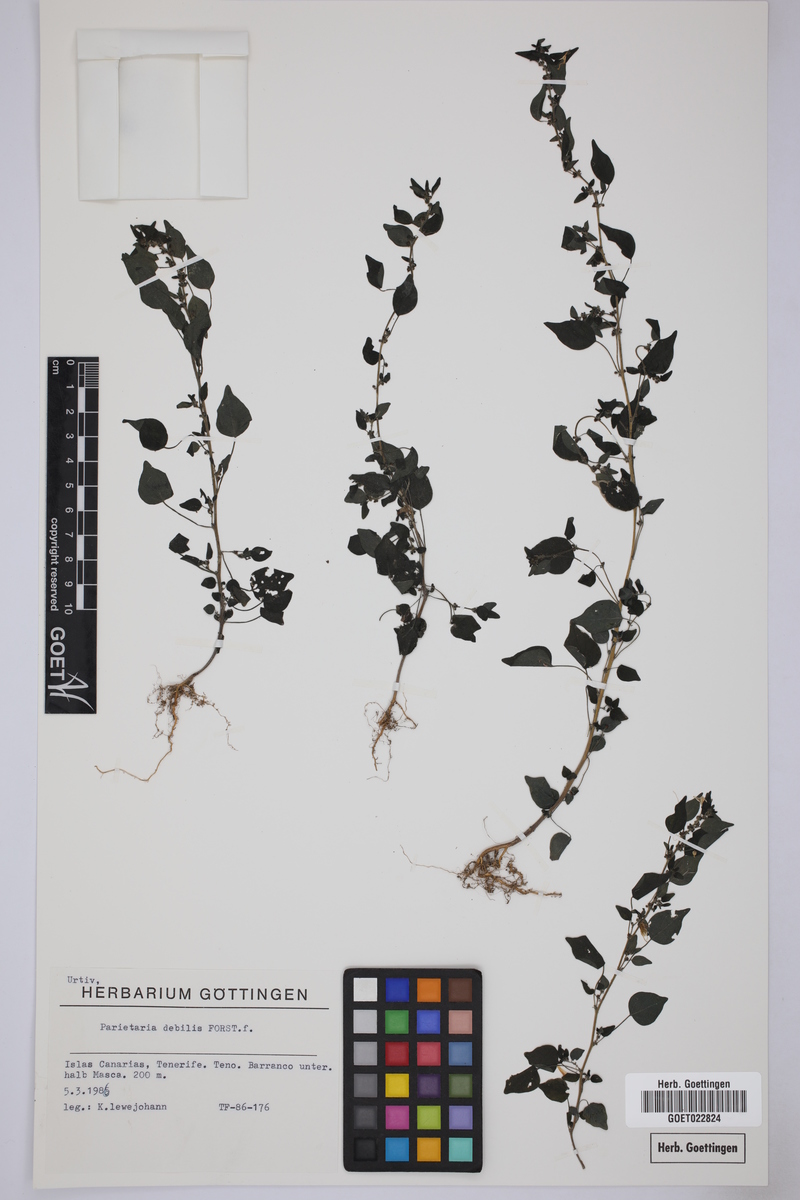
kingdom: Plantae
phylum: Tracheophyta
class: Magnoliopsida
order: Rosales
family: Urticaceae
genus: Parietaria
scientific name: Parietaria debilis
